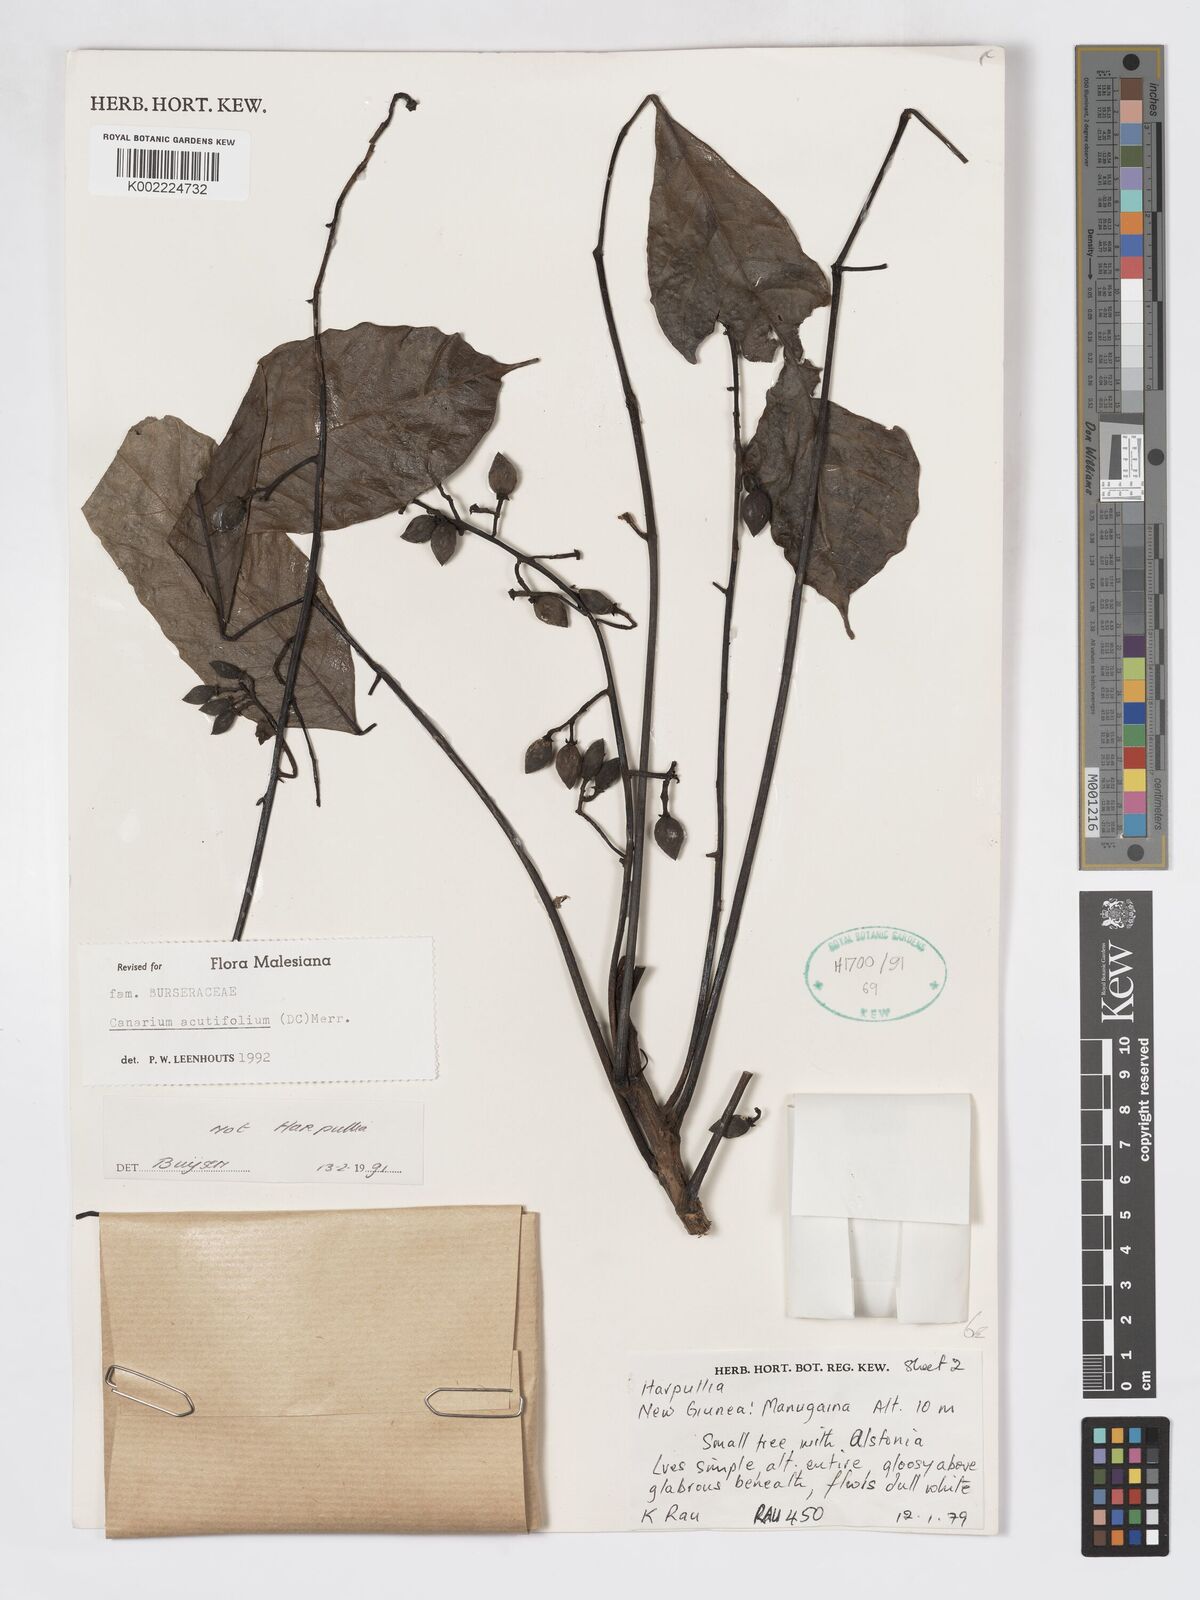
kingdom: Plantae
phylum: Tracheophyta
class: Magnoliopsida
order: Sapindales
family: Burseraceae
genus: Canarium
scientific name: Canarium acutifolium
